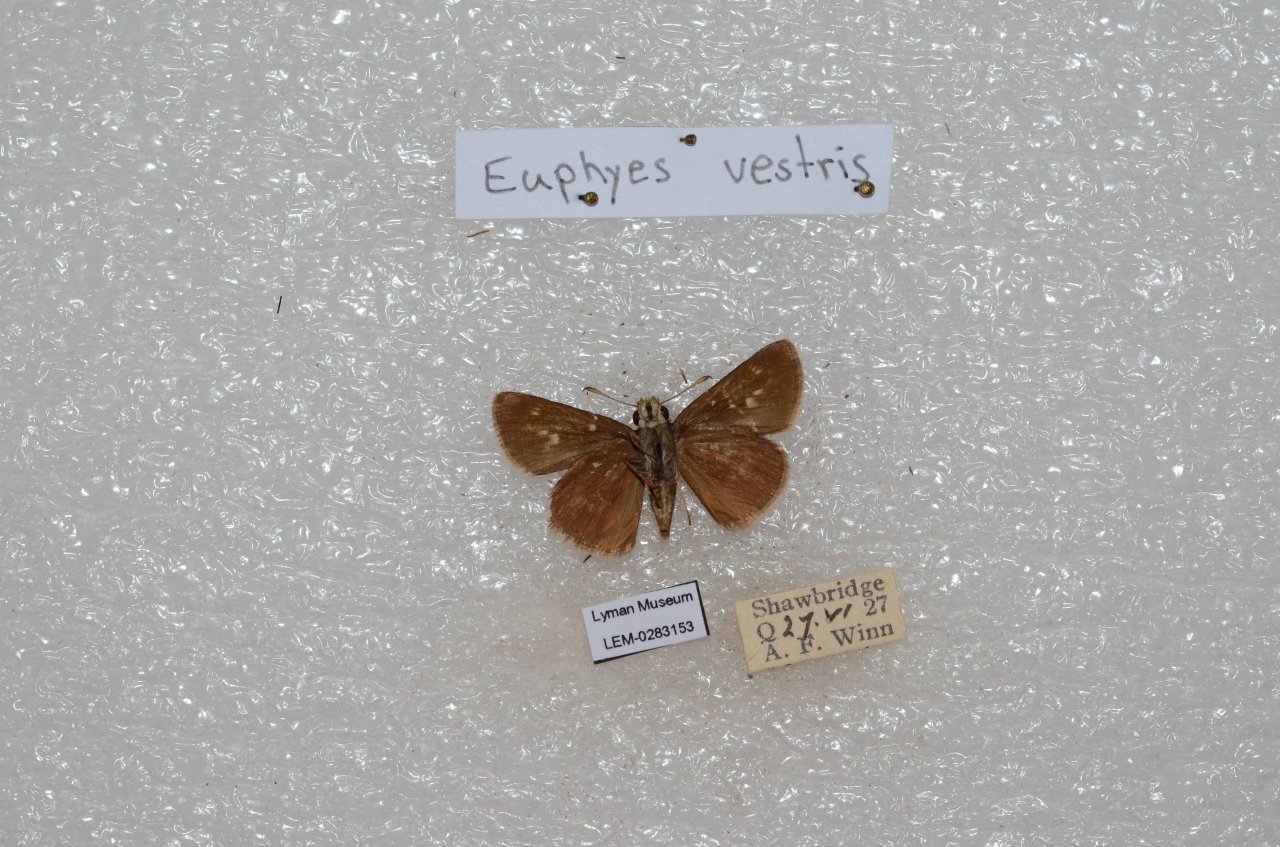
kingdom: Animalia
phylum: Arthropoda
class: Insecta
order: Lepidoptera
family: Hesperiidae
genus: Euphyes
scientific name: Euphyes vestris
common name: Dun Skipper
